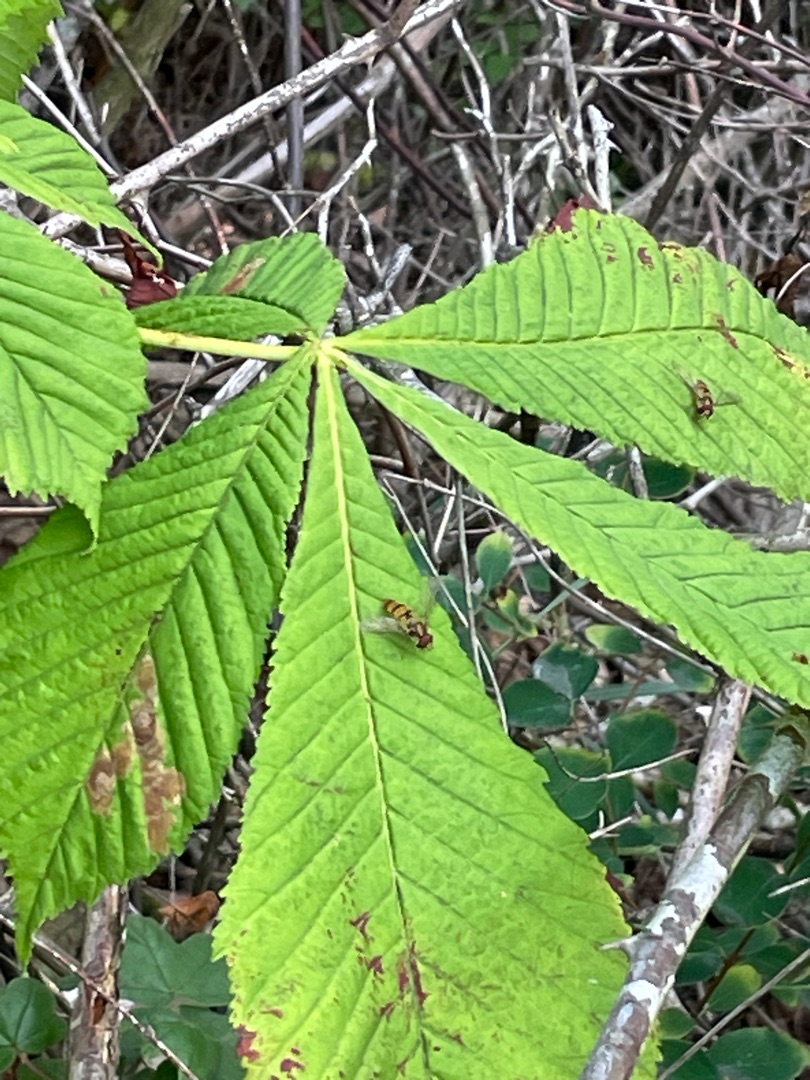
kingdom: Plantae
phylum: Tracheophyta
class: Magnoliopsida
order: Sapindales
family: Sapindaceae
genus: Aesculus
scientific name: Aesculus hippocastanum
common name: Hestekastanie
